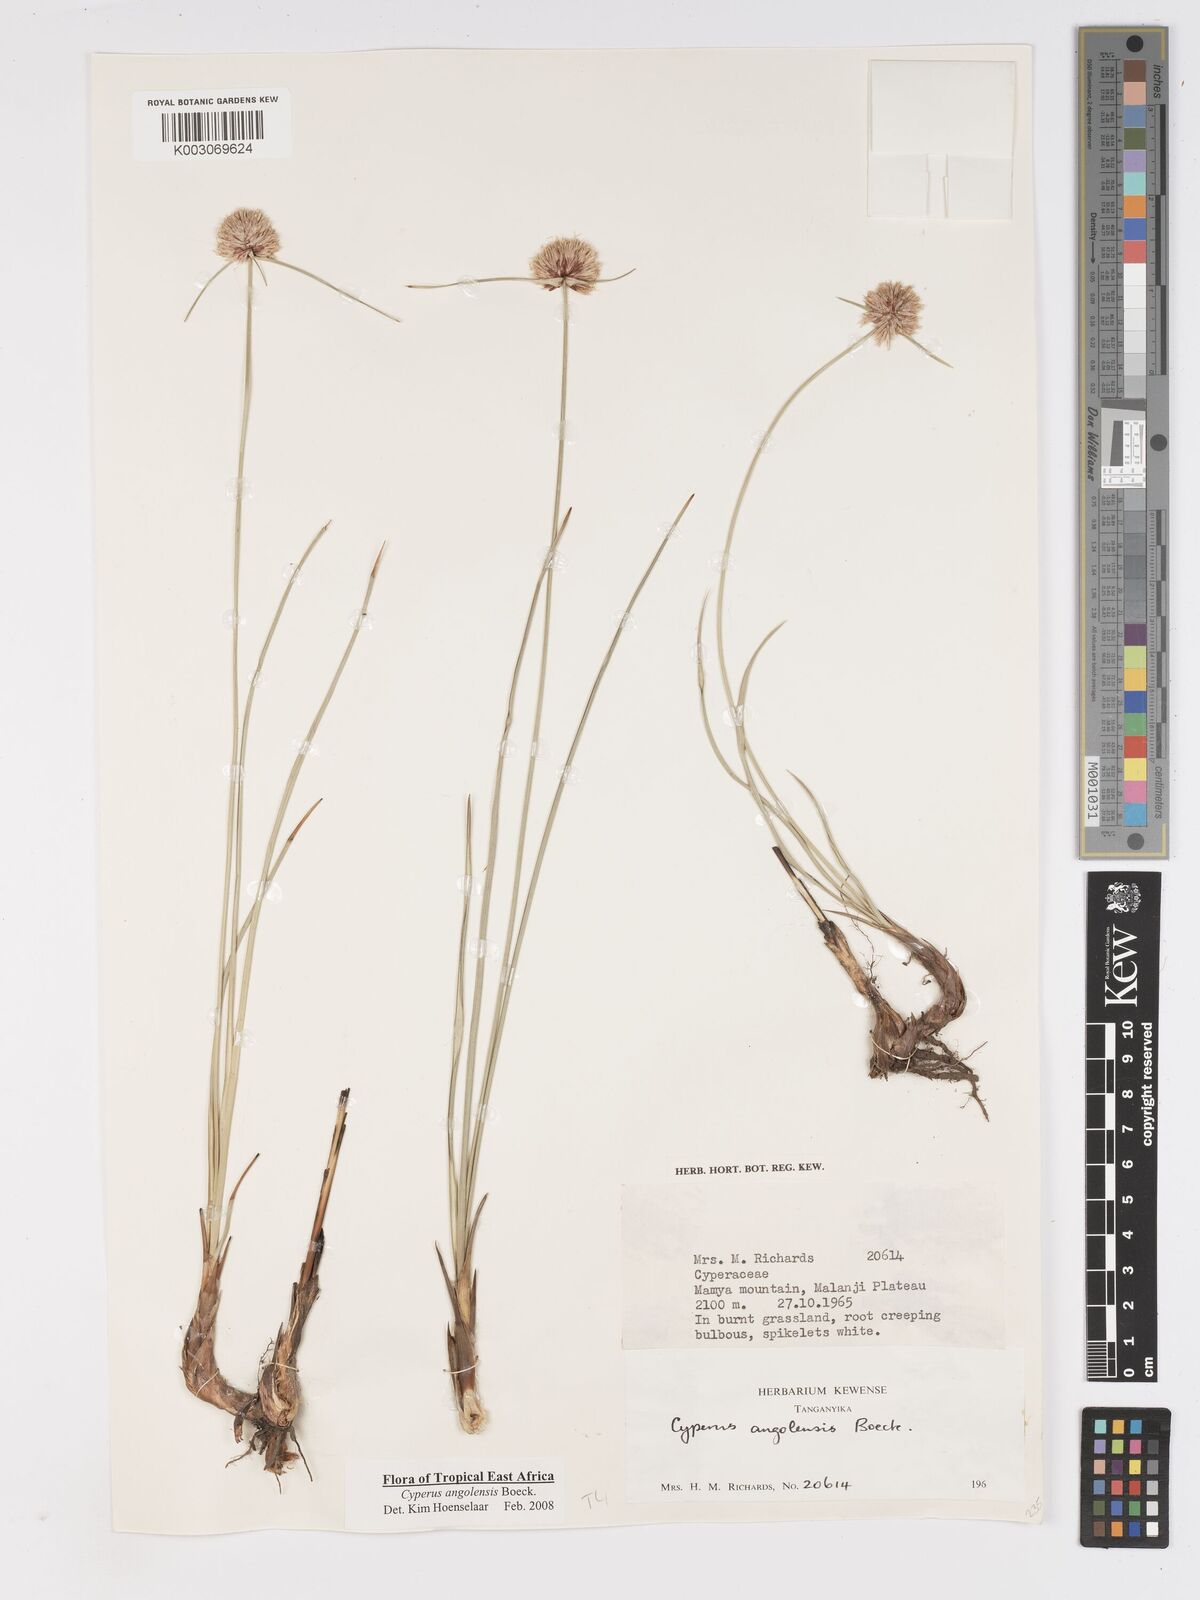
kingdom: Plantae
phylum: Tracheophyta
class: Liliopsida
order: Poales
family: Cyperaceae
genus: Cyperus
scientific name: Cyperus angolensis
